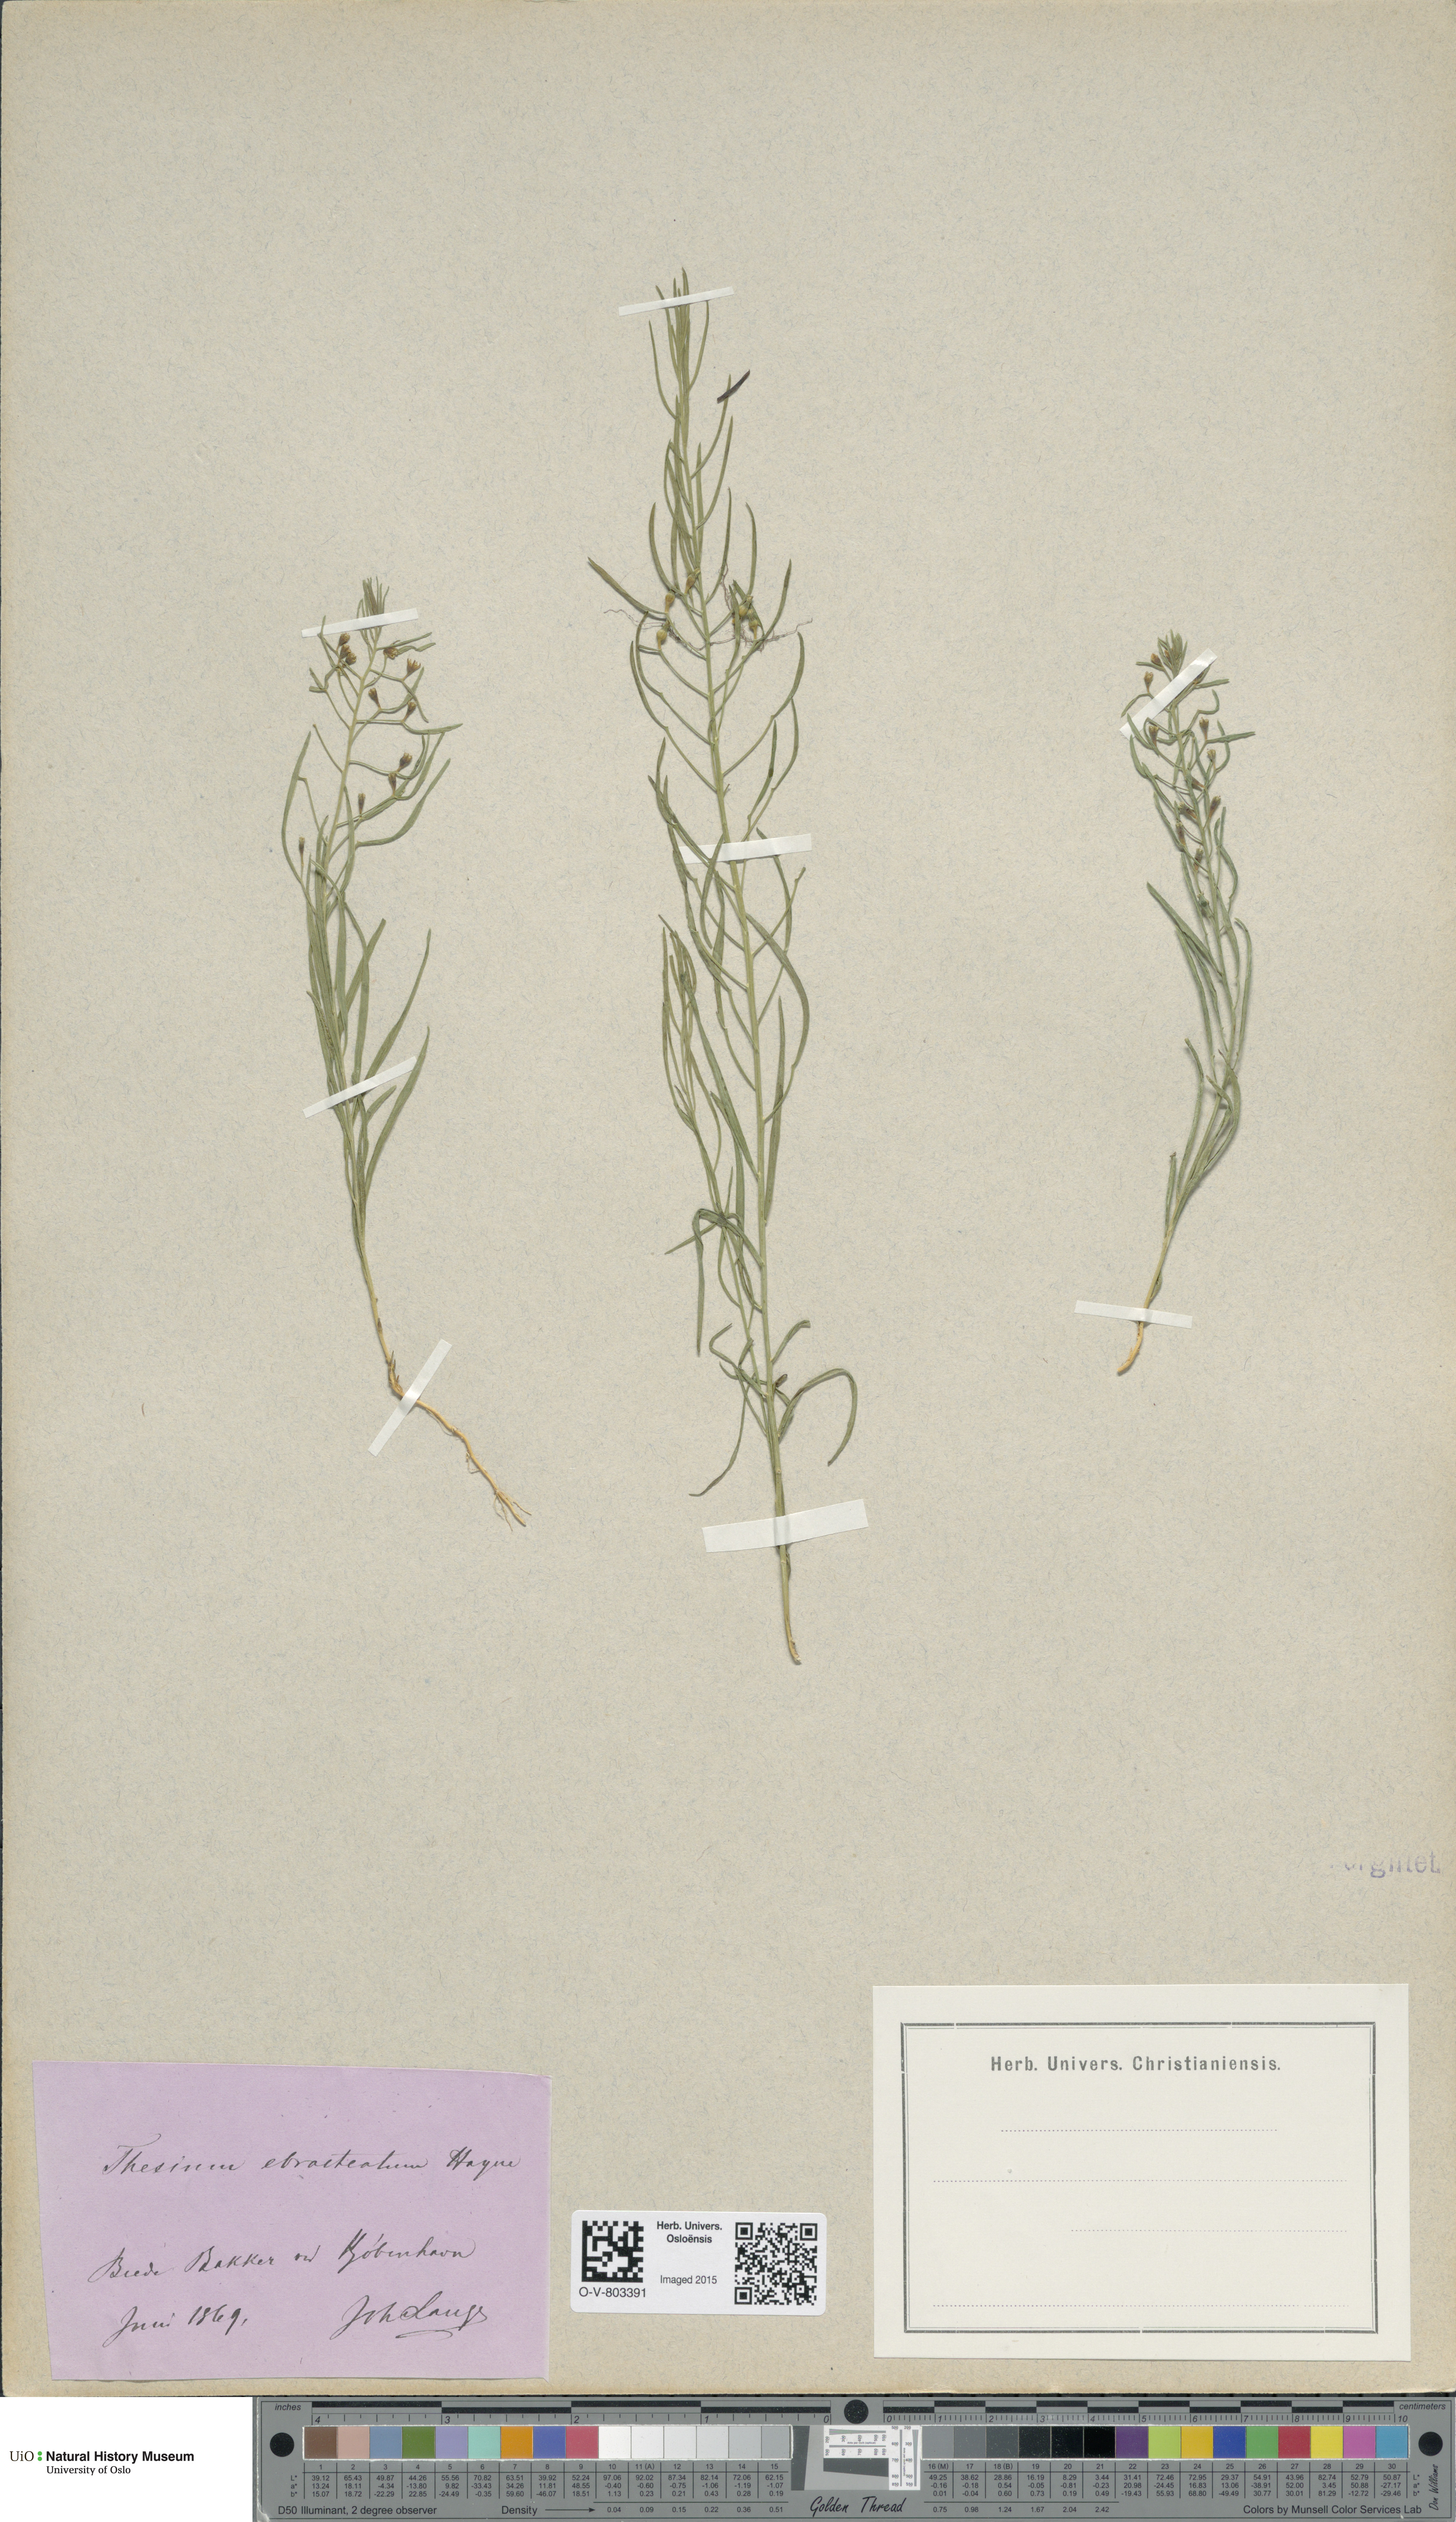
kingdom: Plantae
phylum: Tracheophyta
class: Magnoliopsida
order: Santalales
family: Thesiaceae
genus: Thesium
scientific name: Thesium ebracteatum
